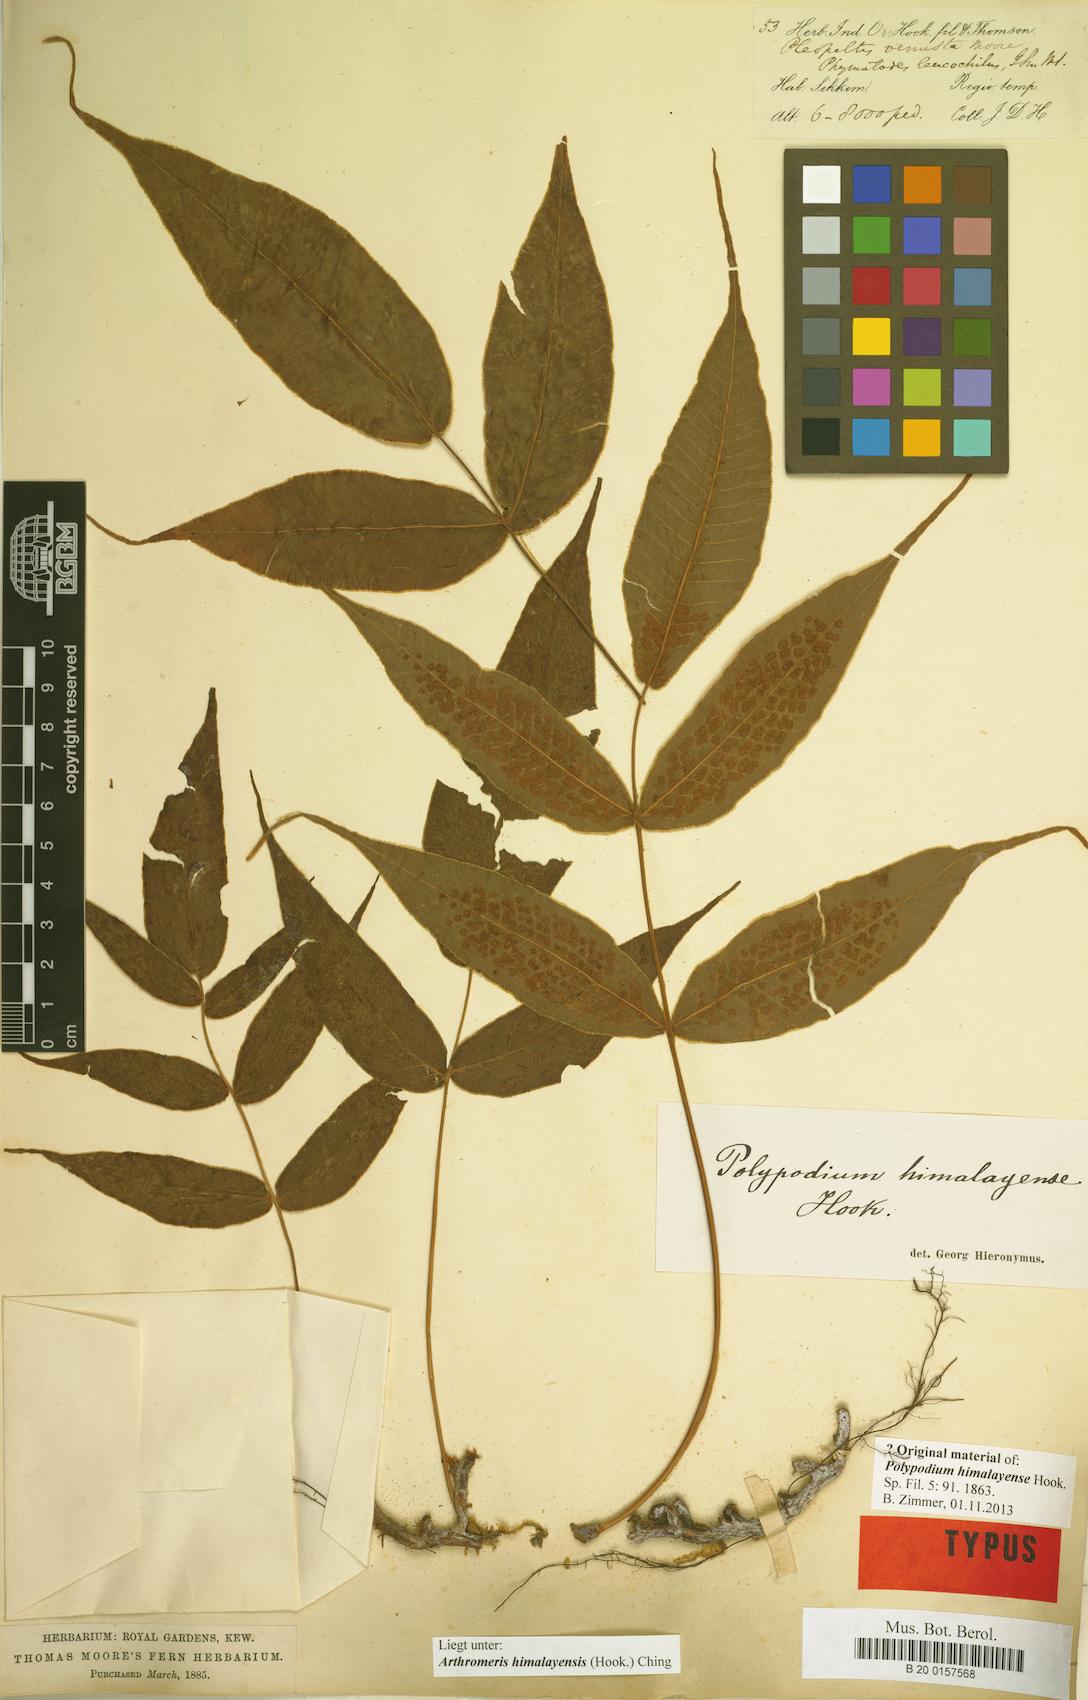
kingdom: Plantae
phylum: Tracheophyta
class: Polypodiopsida
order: Polypodiales
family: Polypodiaceae
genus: Selliguea
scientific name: Selliguea tomentosa
